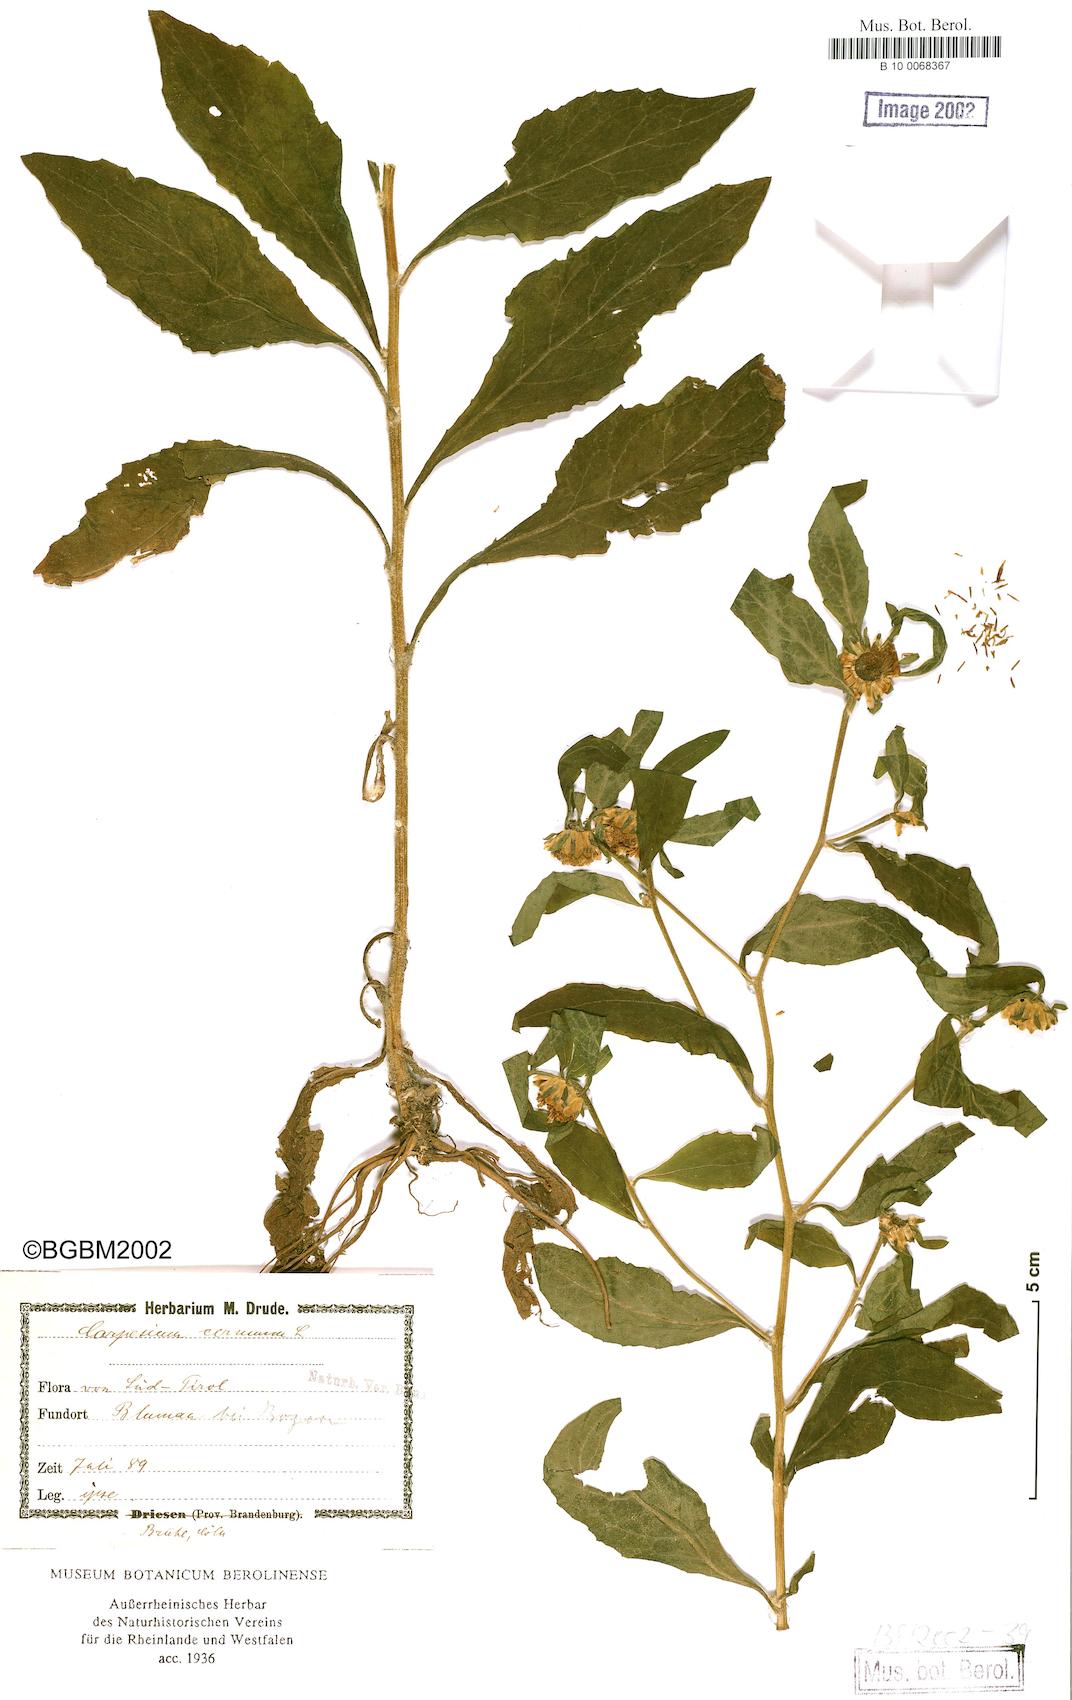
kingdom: Plantae
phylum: Tracheophyta
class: Magnoliopsida
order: Asterales
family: Asteraceae
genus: Carpesium
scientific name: Carpesium cernuum
